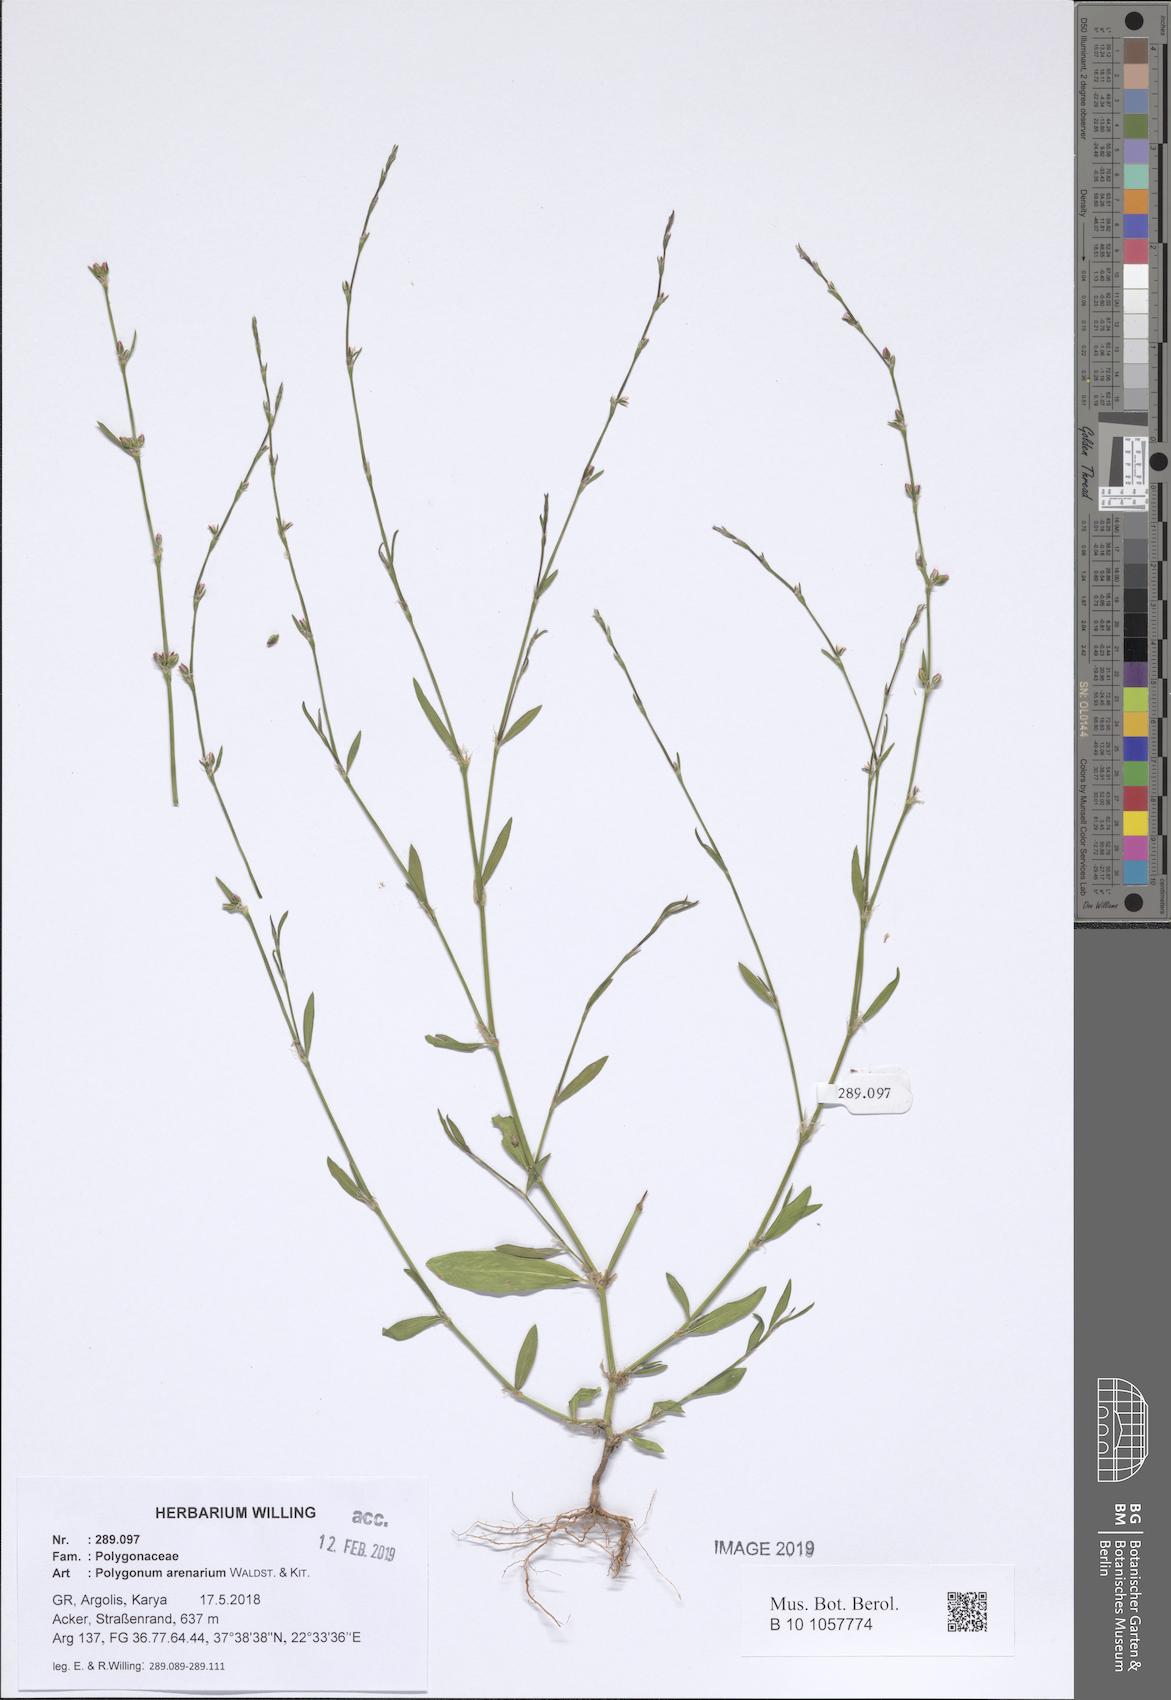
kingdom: Plantae
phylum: Tracheophyta
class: Magnoliopsida
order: Caryophyllales
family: Polygonaceae
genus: Polygonum
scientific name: Polygonum arenarium
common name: Lesser red-knotgrass
